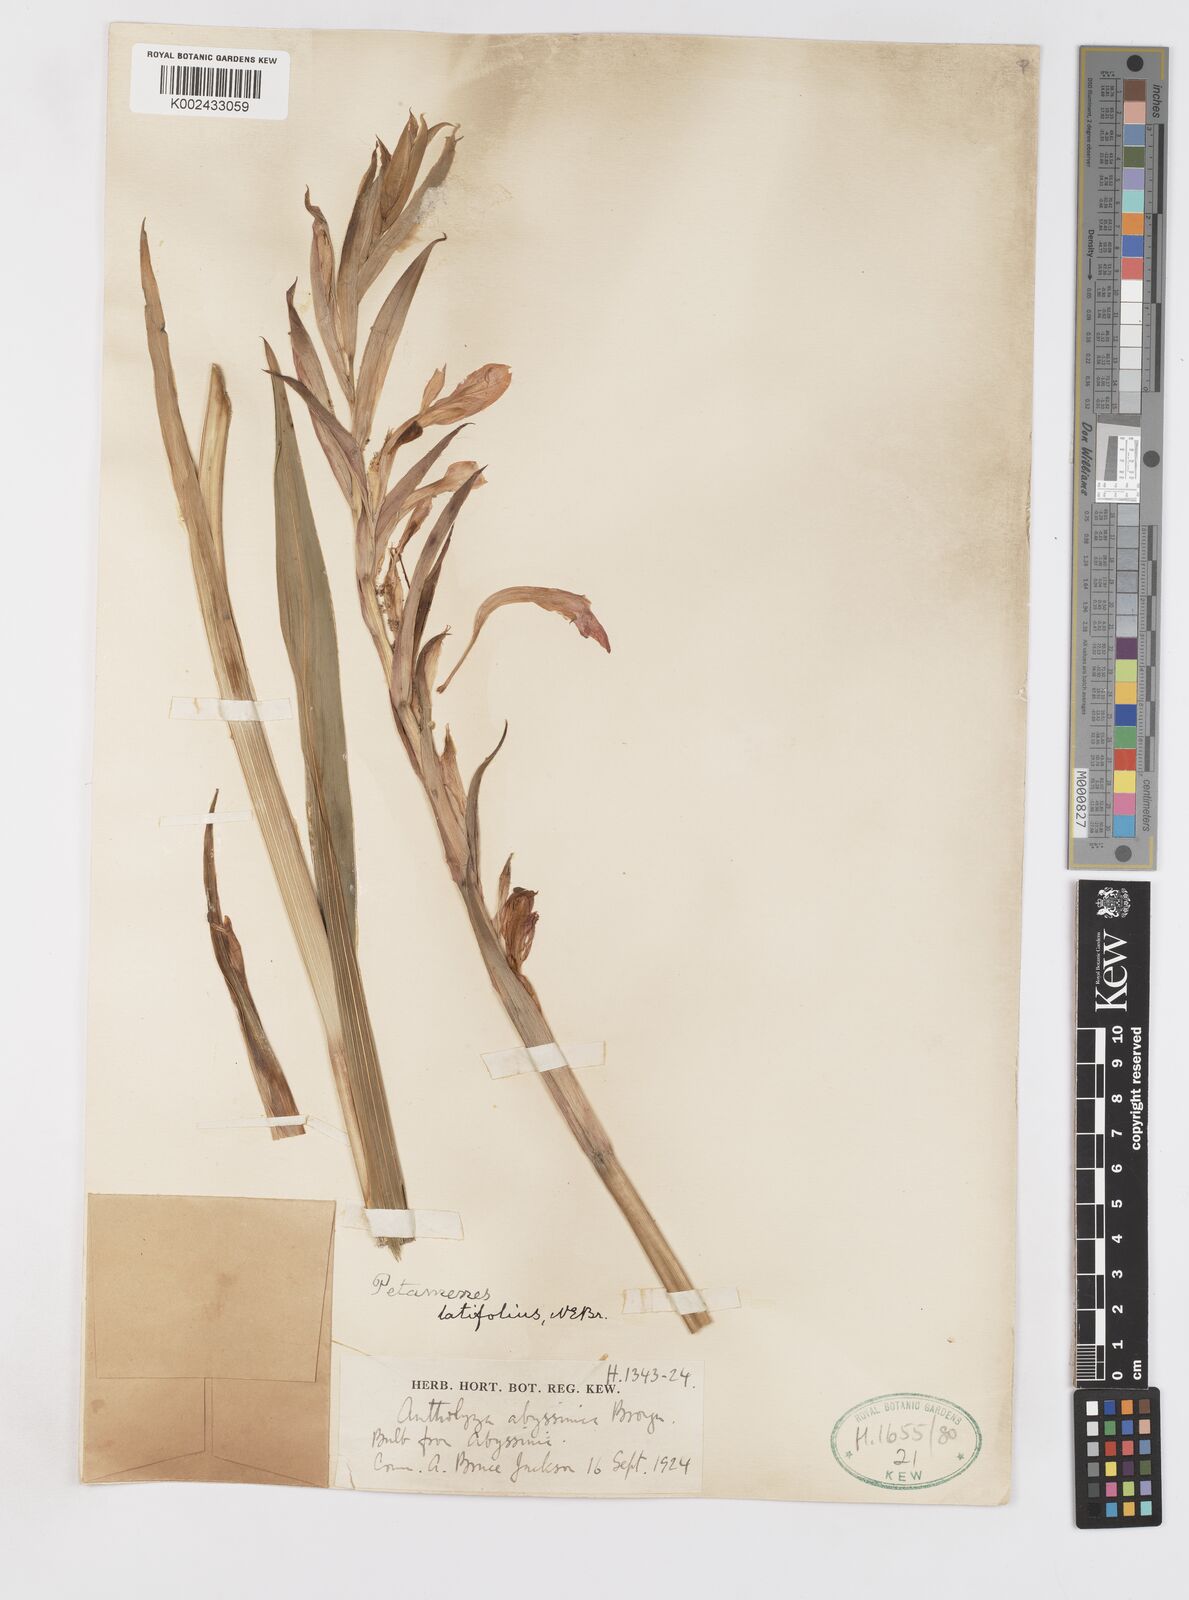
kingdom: Plantae
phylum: Tracheophyta
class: Liliopsida
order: Asparagales
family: Iridaceae
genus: Gladiolus
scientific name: Gladiolus abyssinicus
